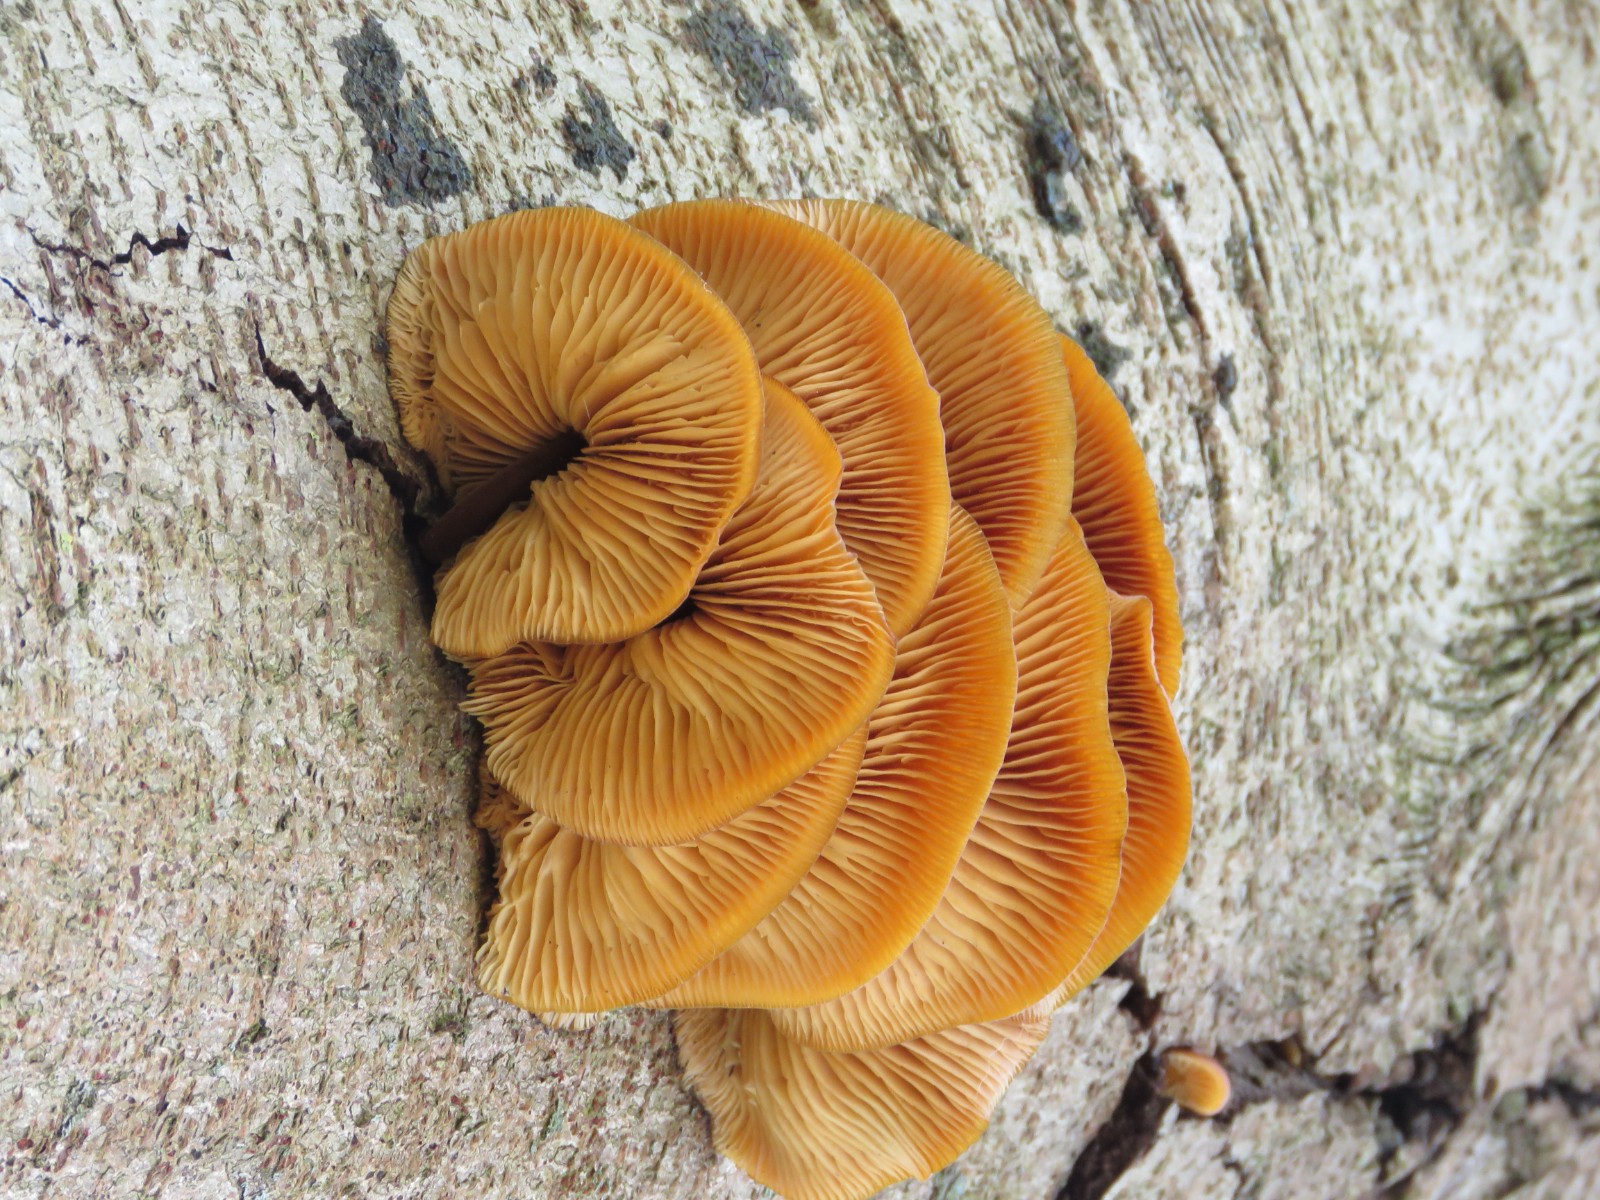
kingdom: Fungi
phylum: Basidiomycota
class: Agaricomycetes
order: Agaricales
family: Physalacriaceae
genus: Flammulina
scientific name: Flammulina velutipes
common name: gul fløjlsfod
